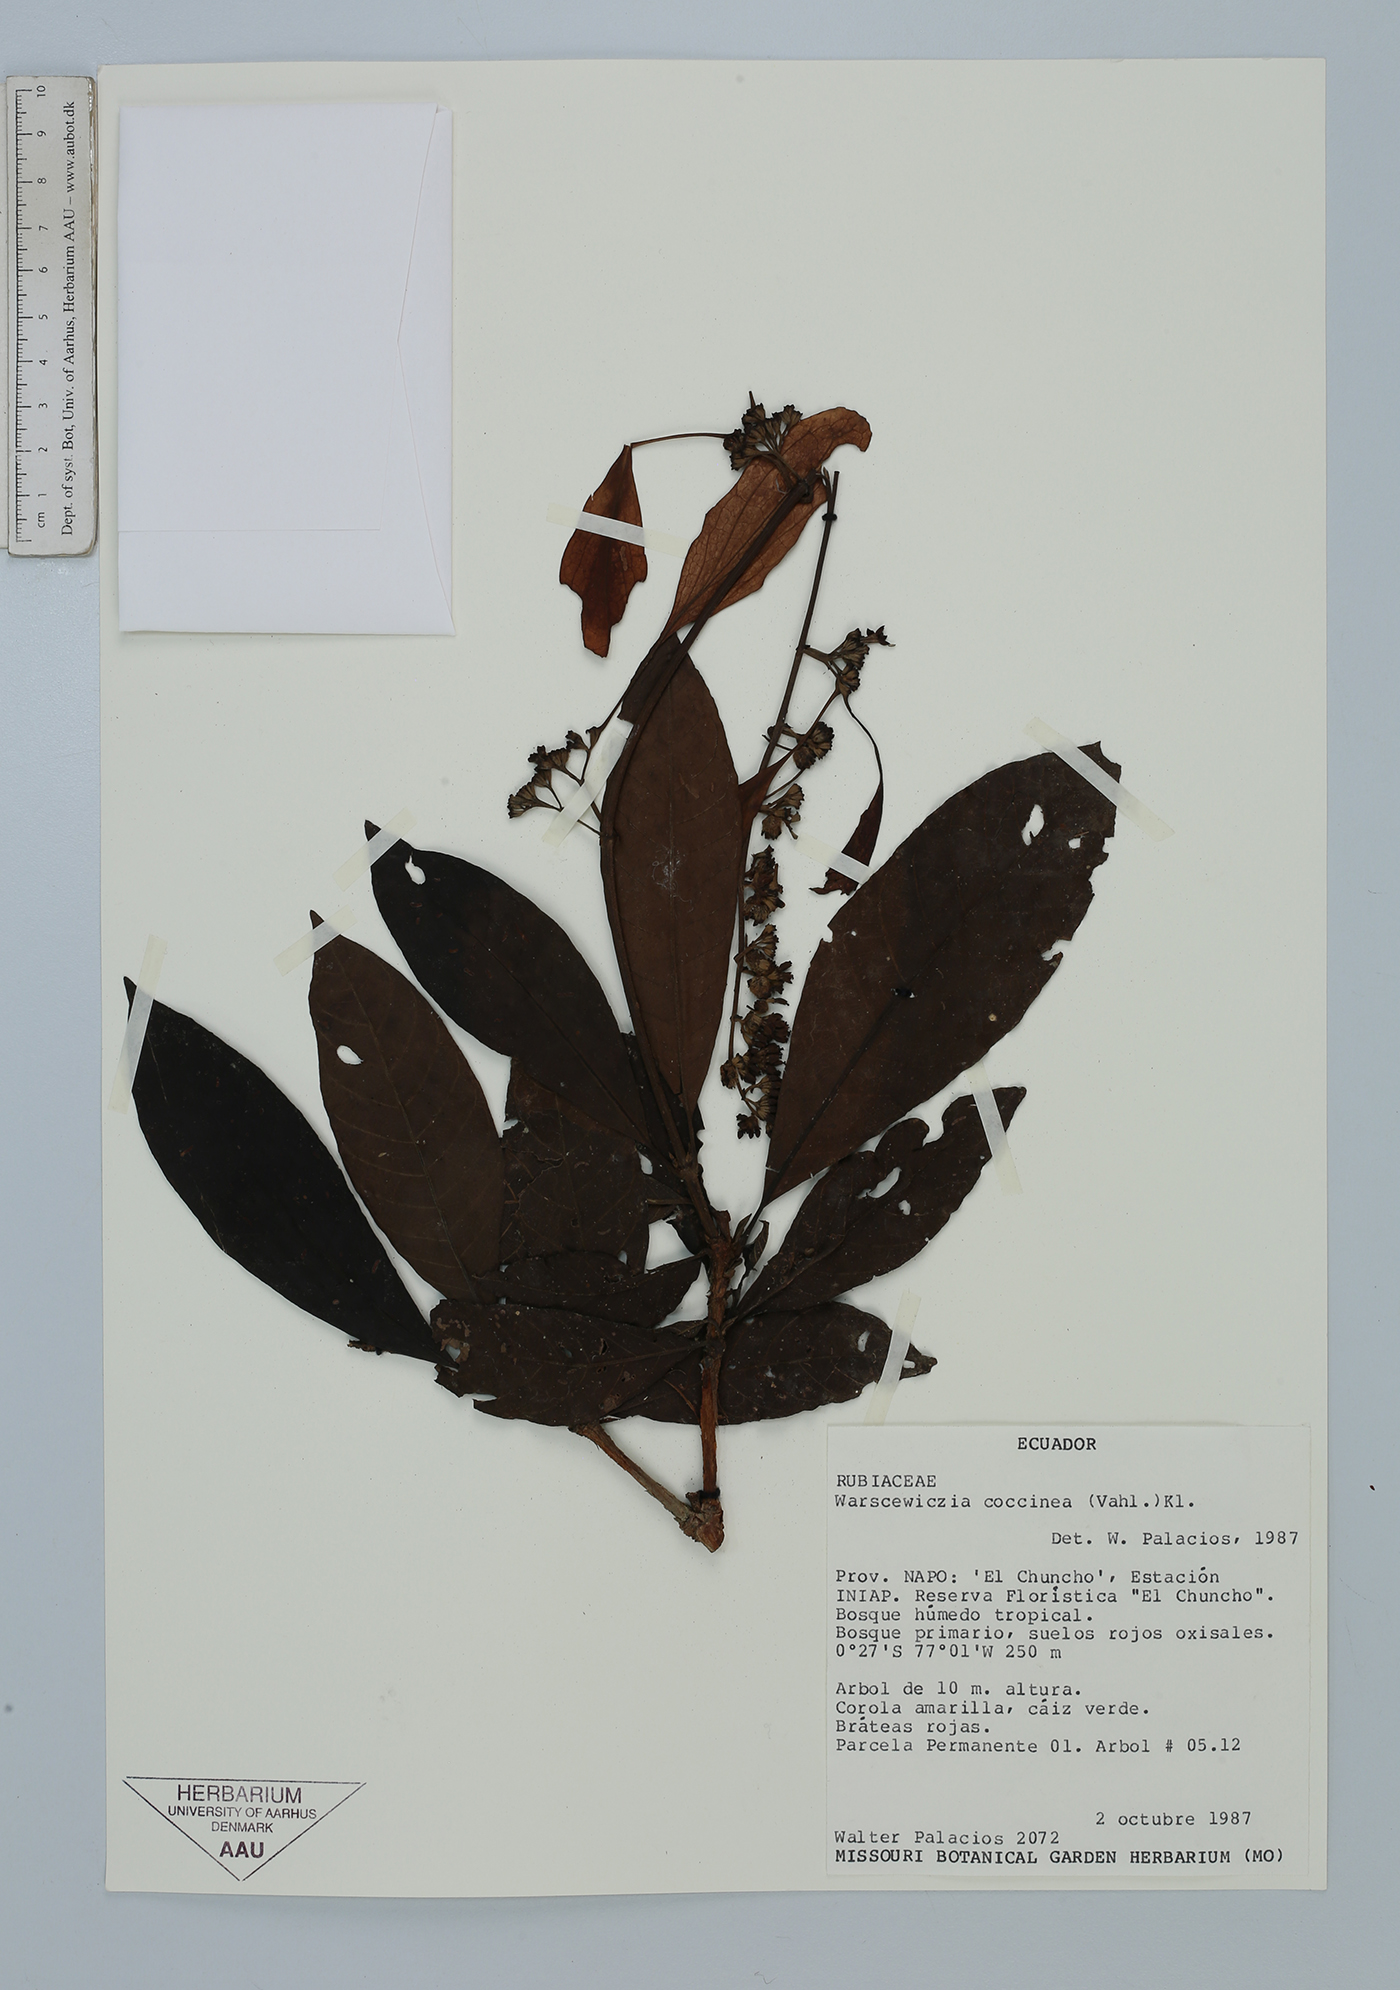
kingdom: Plantae
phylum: Tracheophyta
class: Magnoliopsida
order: Gentianales
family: Rubiaceae
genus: Warszewiczia
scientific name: Warszewiczia coccinea
